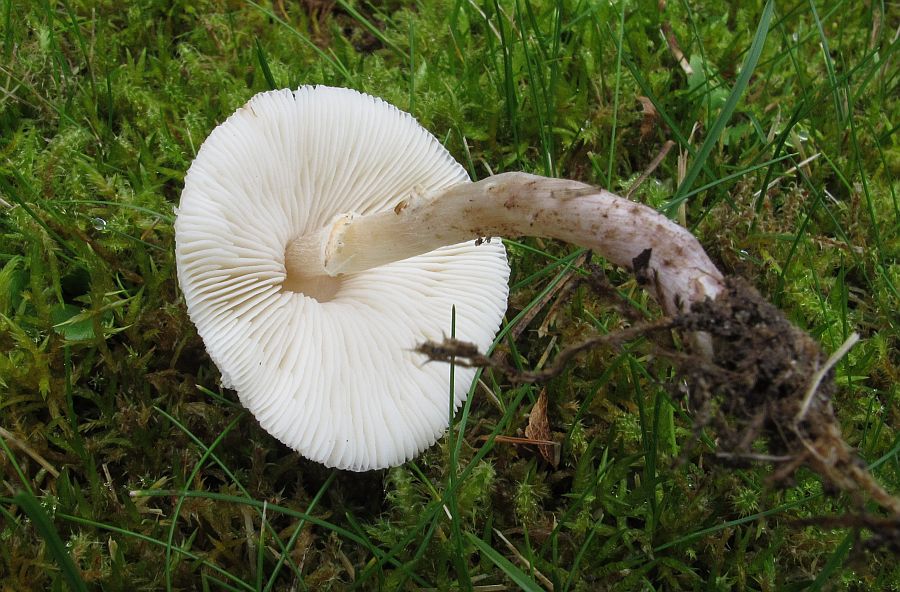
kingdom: Fungi
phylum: Basidiomycota
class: Agaricomycetes
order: Agaricales
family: Agaricaceae
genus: Lepiota
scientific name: Lepiota cristata
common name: Stinking dapperling
